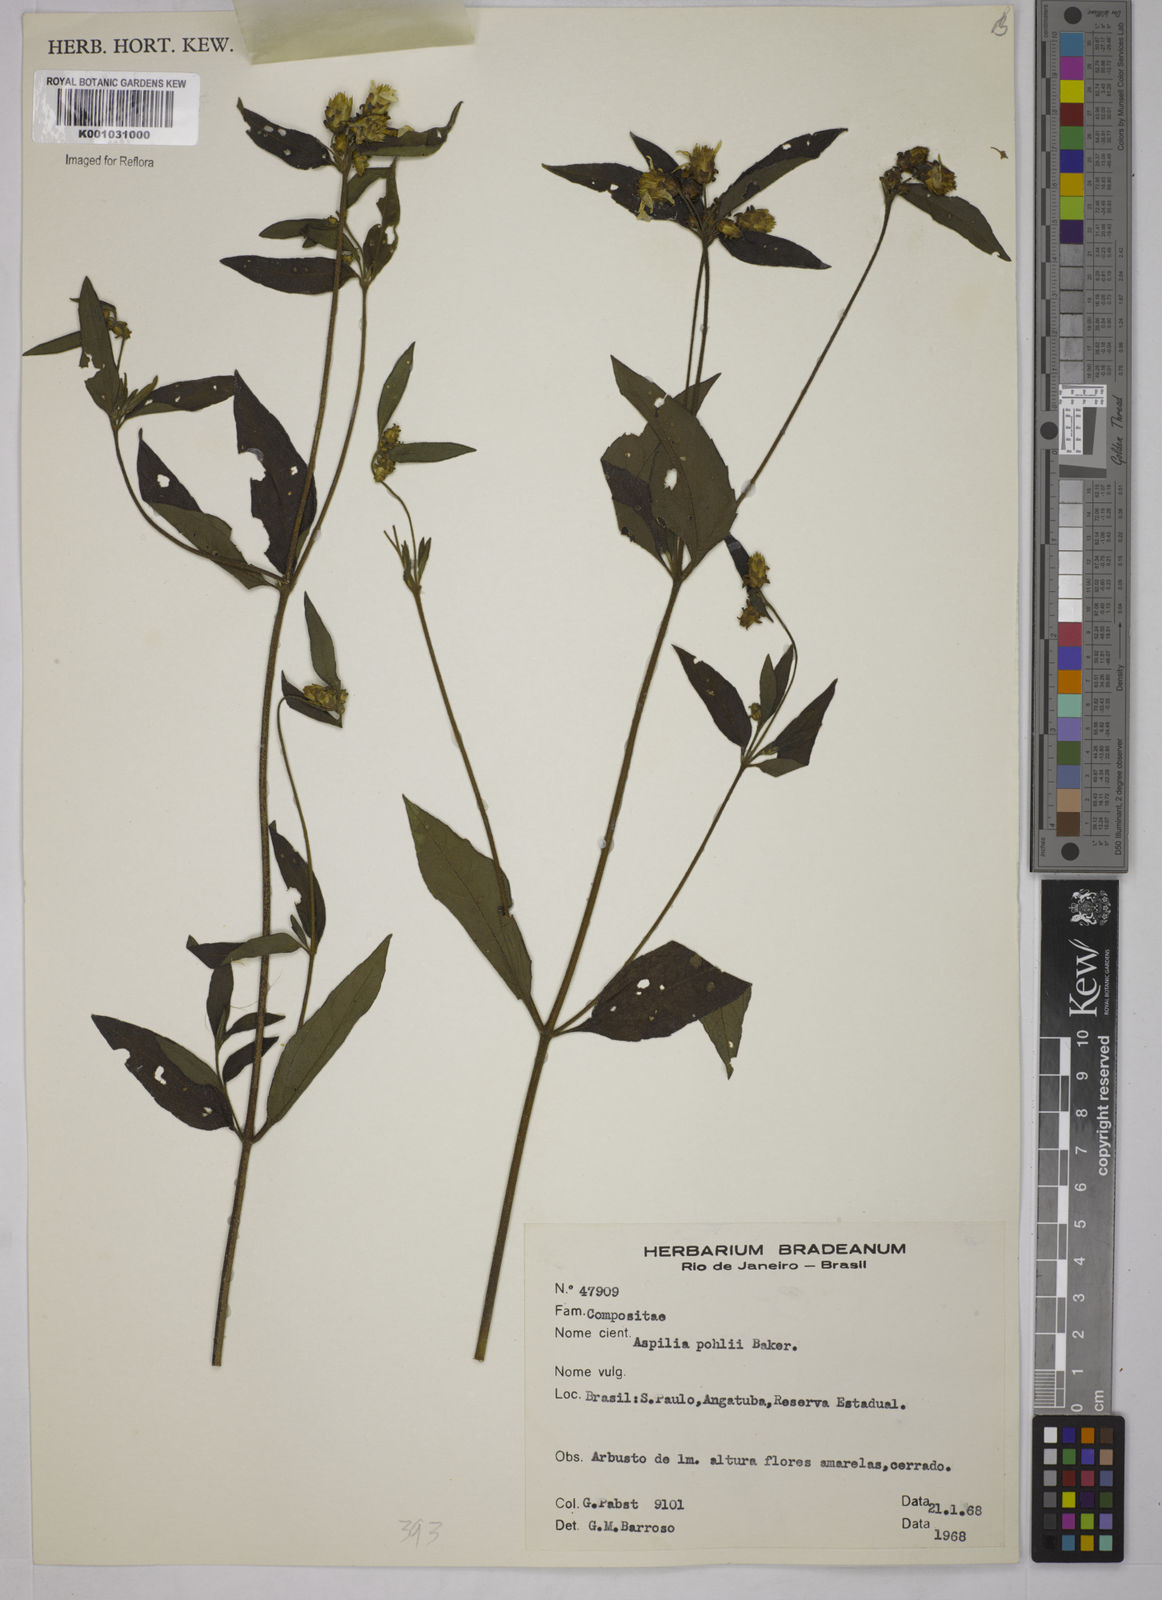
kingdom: Plantae
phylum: Tracheophyta
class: Magnoliopsida
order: Asterales
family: Asteraceae
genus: Aspilia
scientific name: Aspilia pohlii
